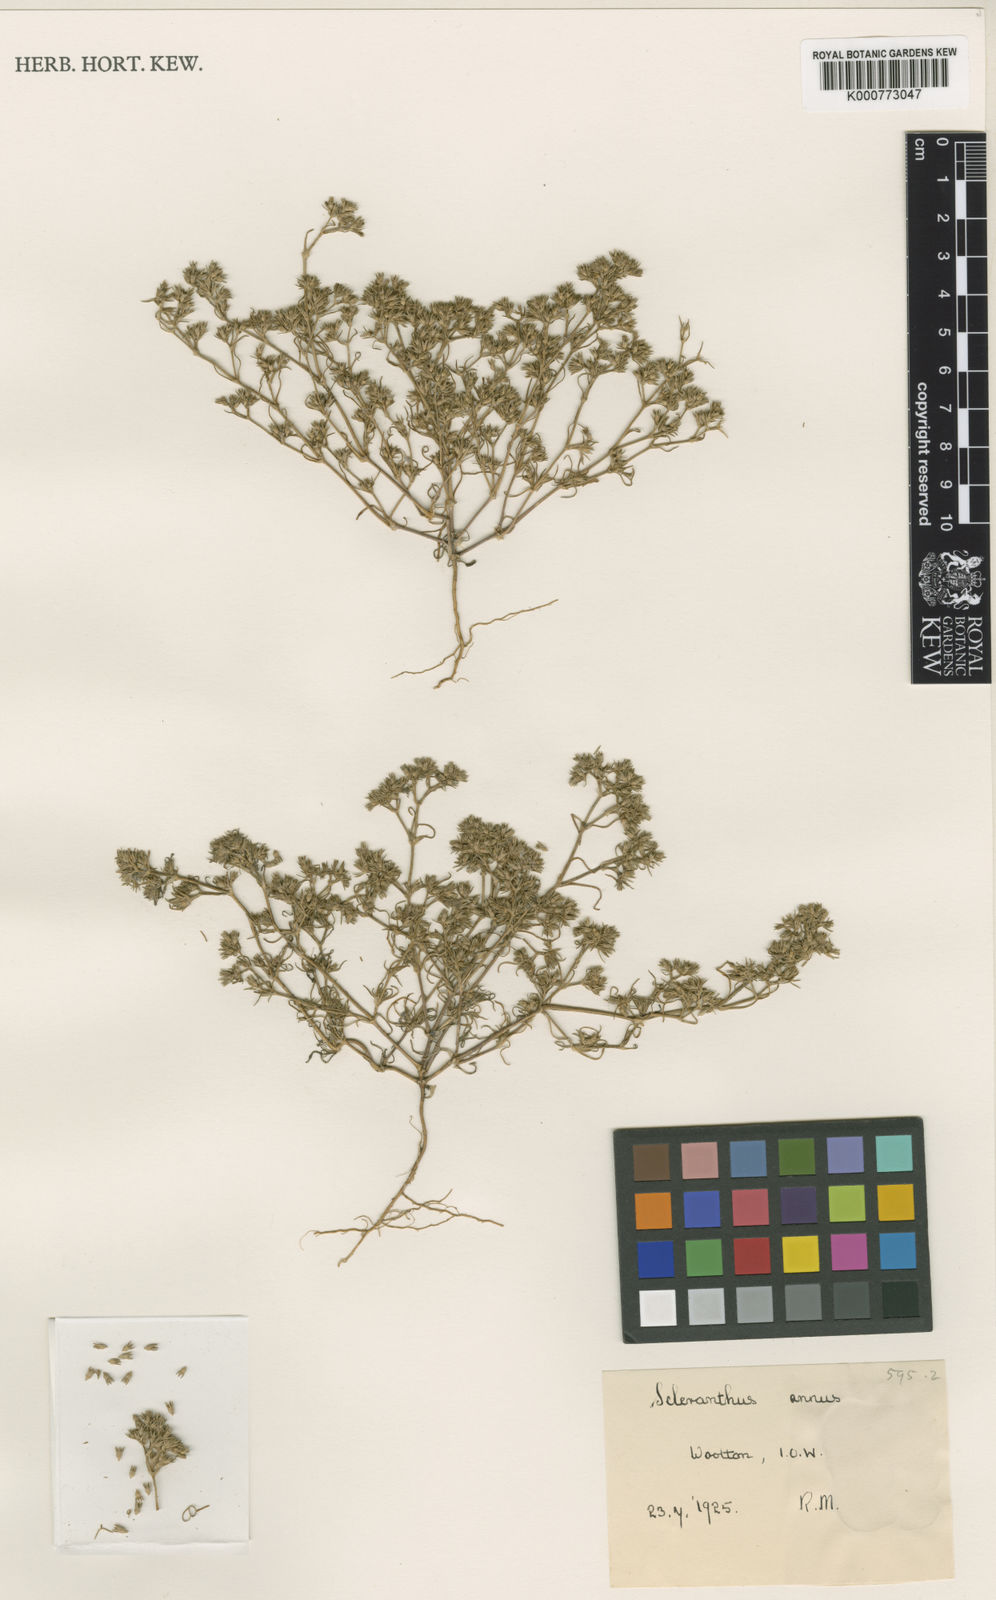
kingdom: Plantae
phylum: Tracheophyta
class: Magnoliopsida
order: Caryophyllales
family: Caryophyllaceae
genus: Scleranthus
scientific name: Scleranthus annuus
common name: Annual knawel
